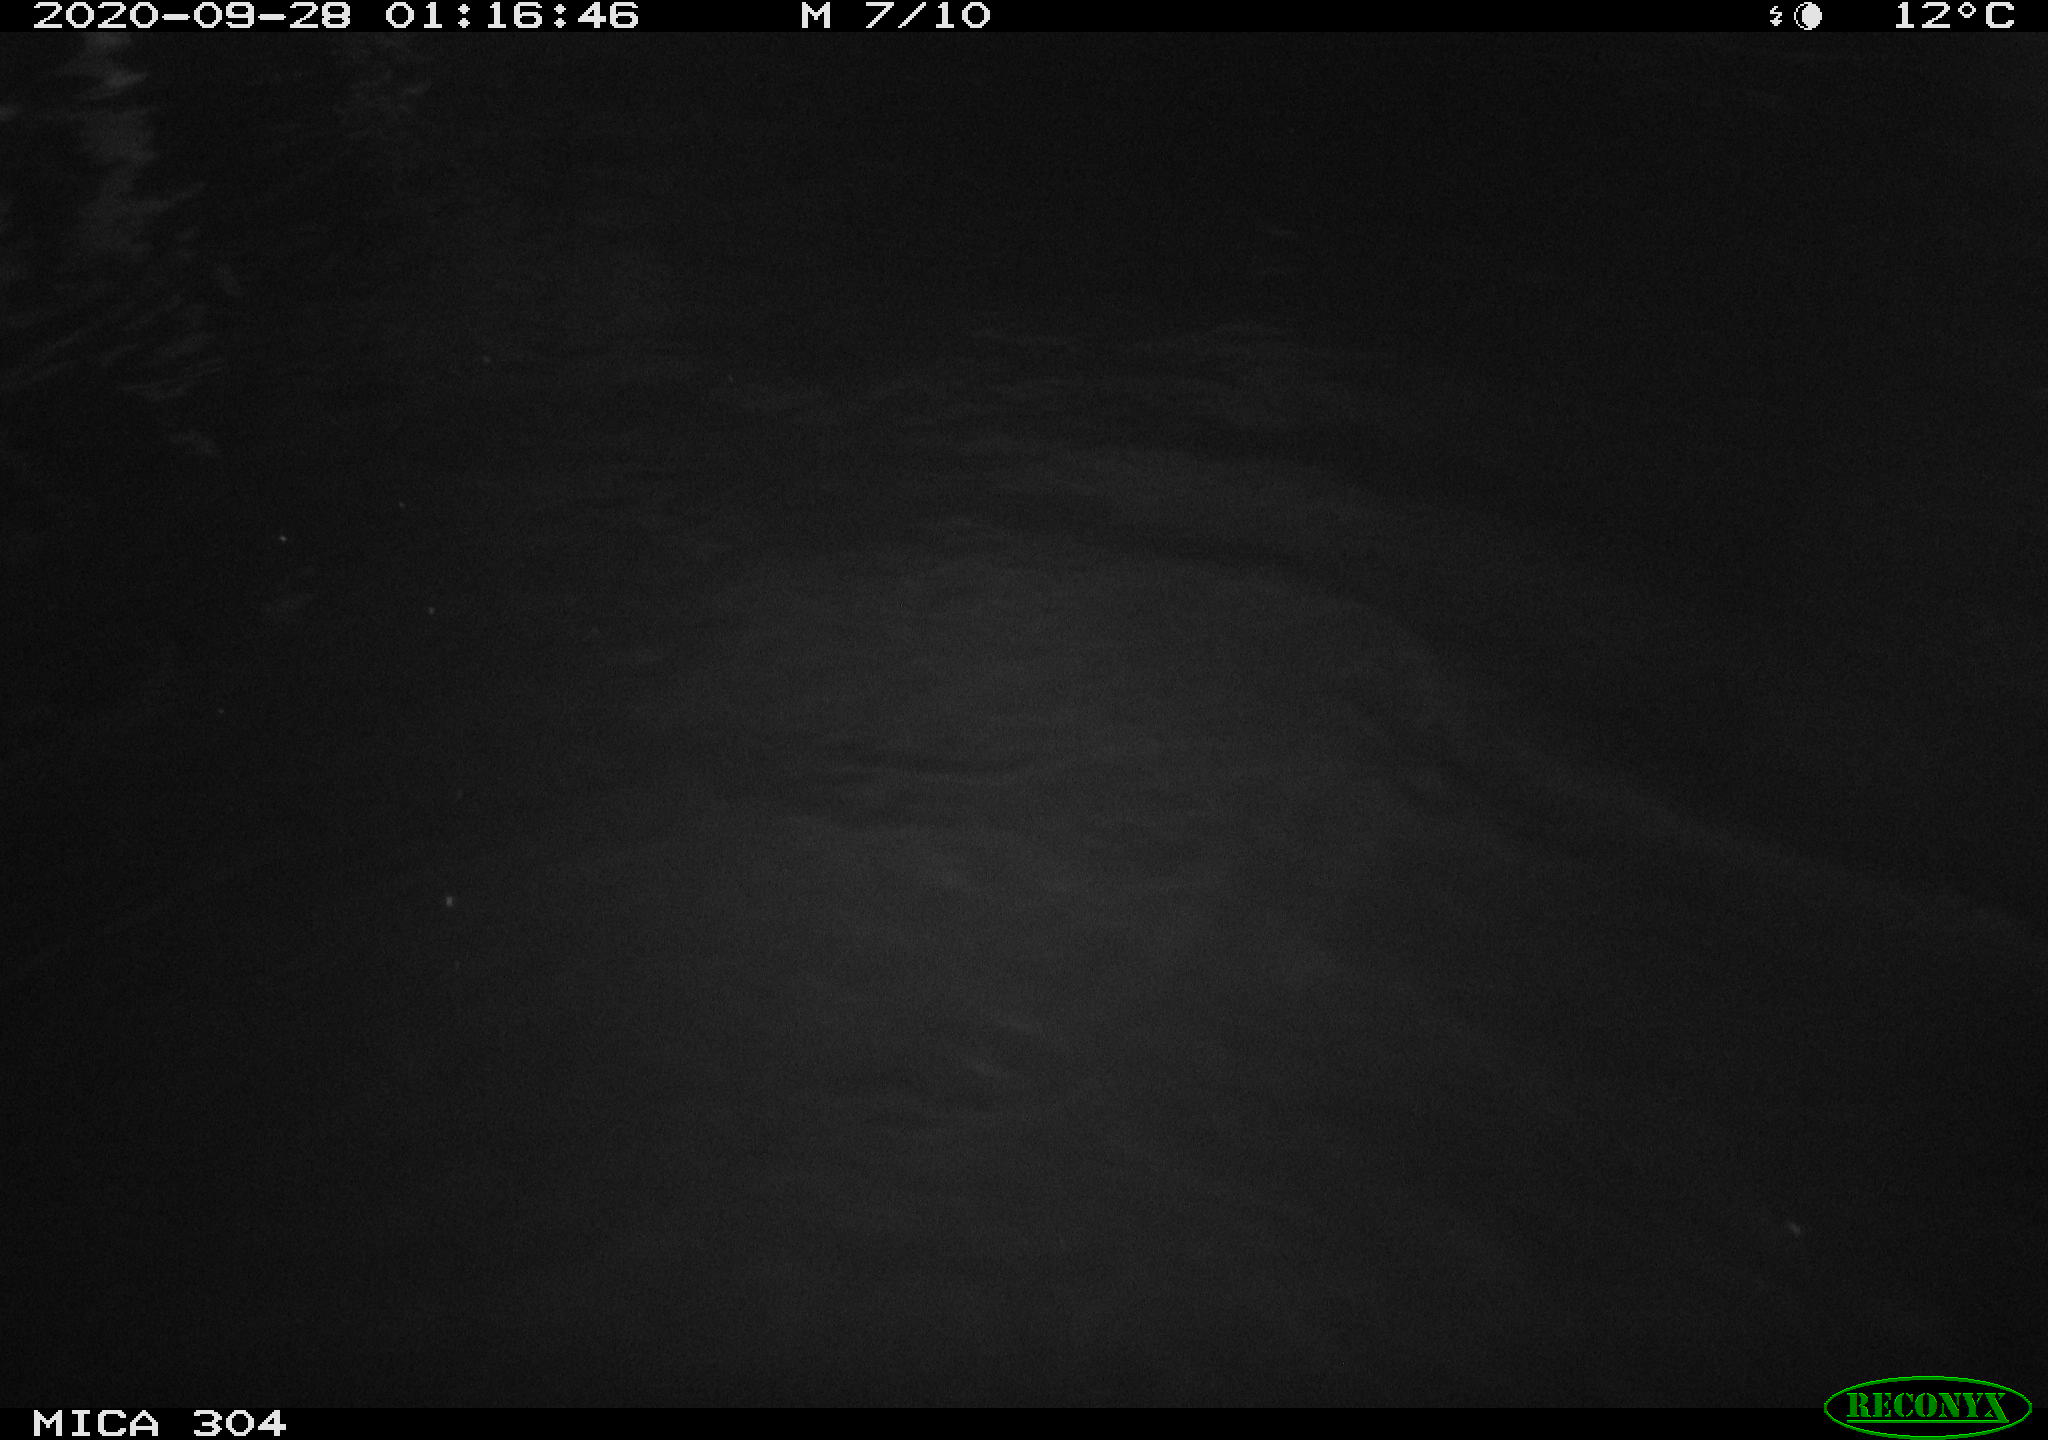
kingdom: Animalia
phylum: Chordata
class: Mammalia
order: Rodentia
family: Cricetidae
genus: Ondatra
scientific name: Ondatra zibethicus
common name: Muskrat
